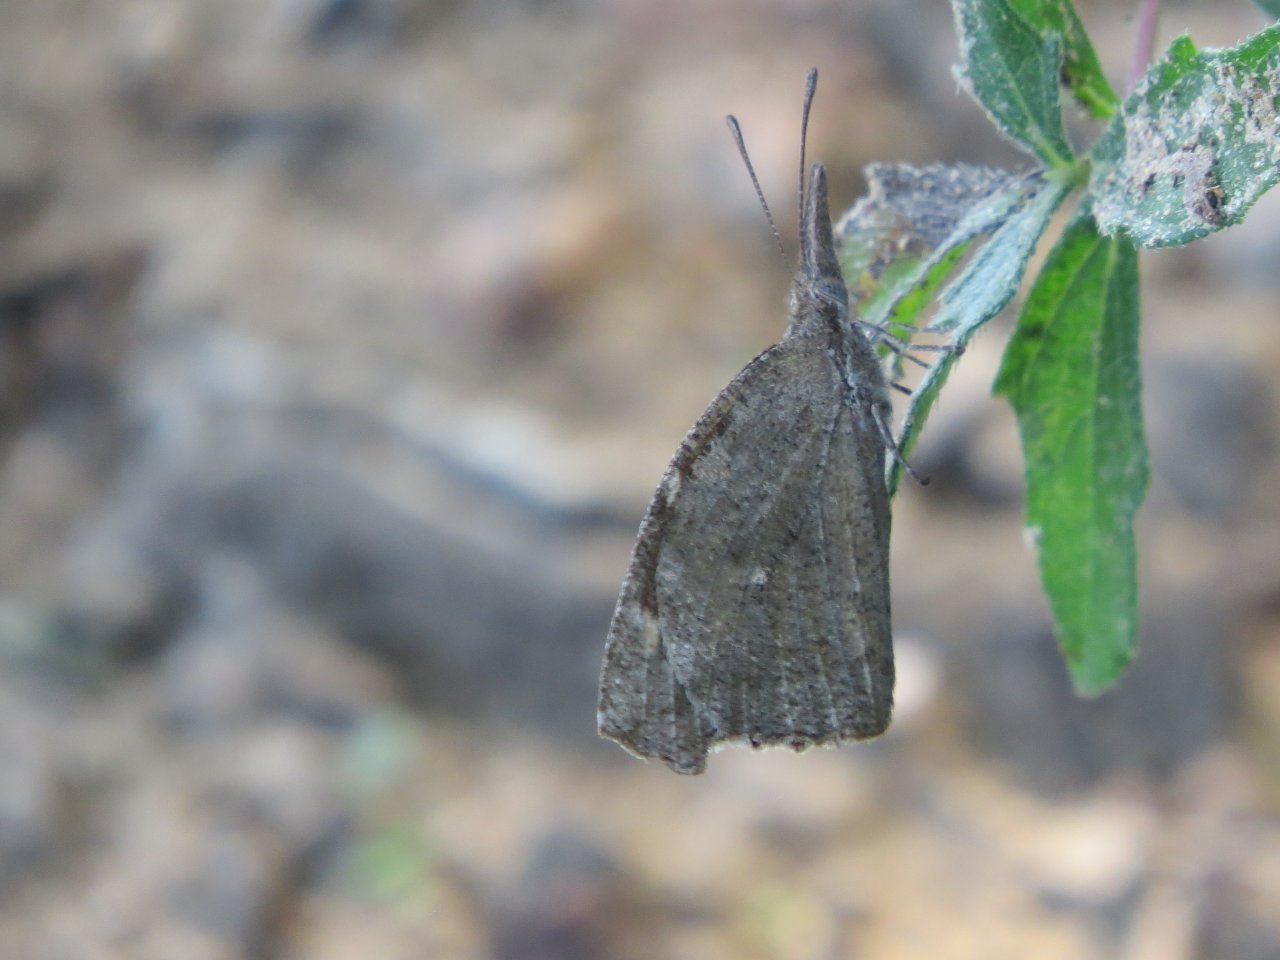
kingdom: Animalia
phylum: Arthropoda
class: Insecta
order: Lepidoptera
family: Nymphalidae
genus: Libytheana
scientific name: Libytheana carinenta
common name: American Snout
